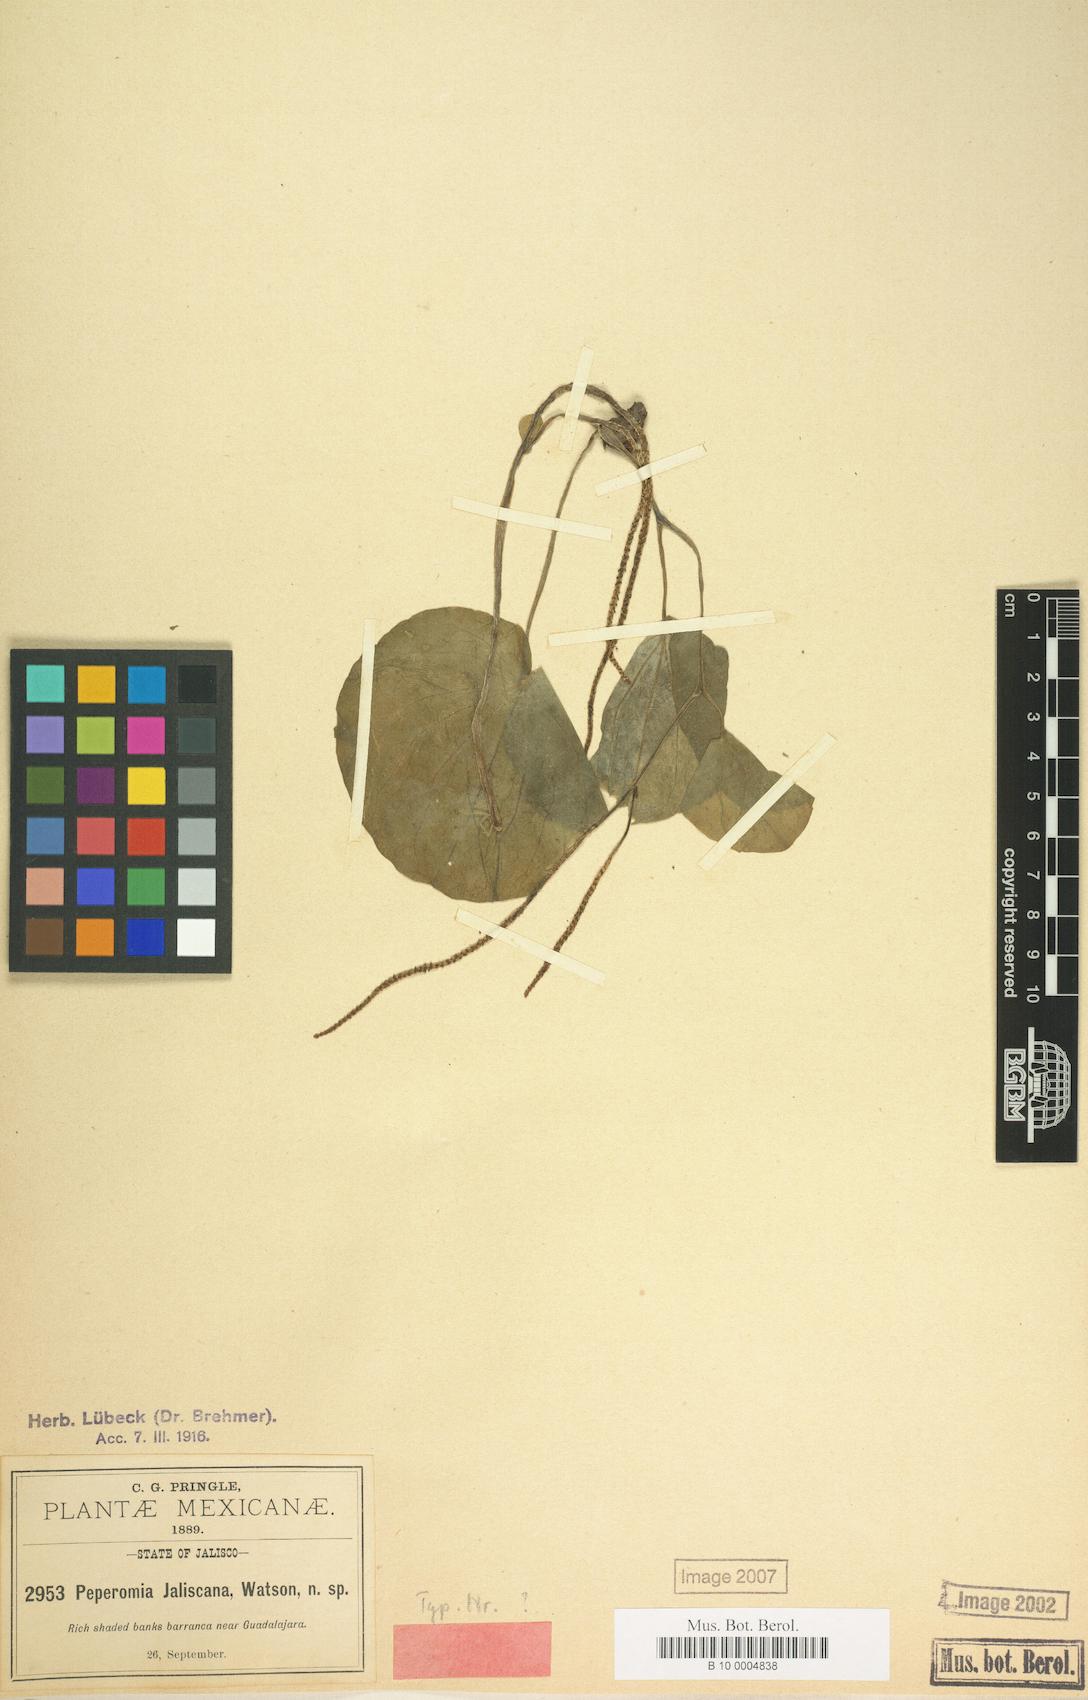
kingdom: Plantae
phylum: Tracheophyta
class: Magnoliopsida
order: Piperales
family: Piperaceae
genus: Peperomia
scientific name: Peperomia asarifolia
